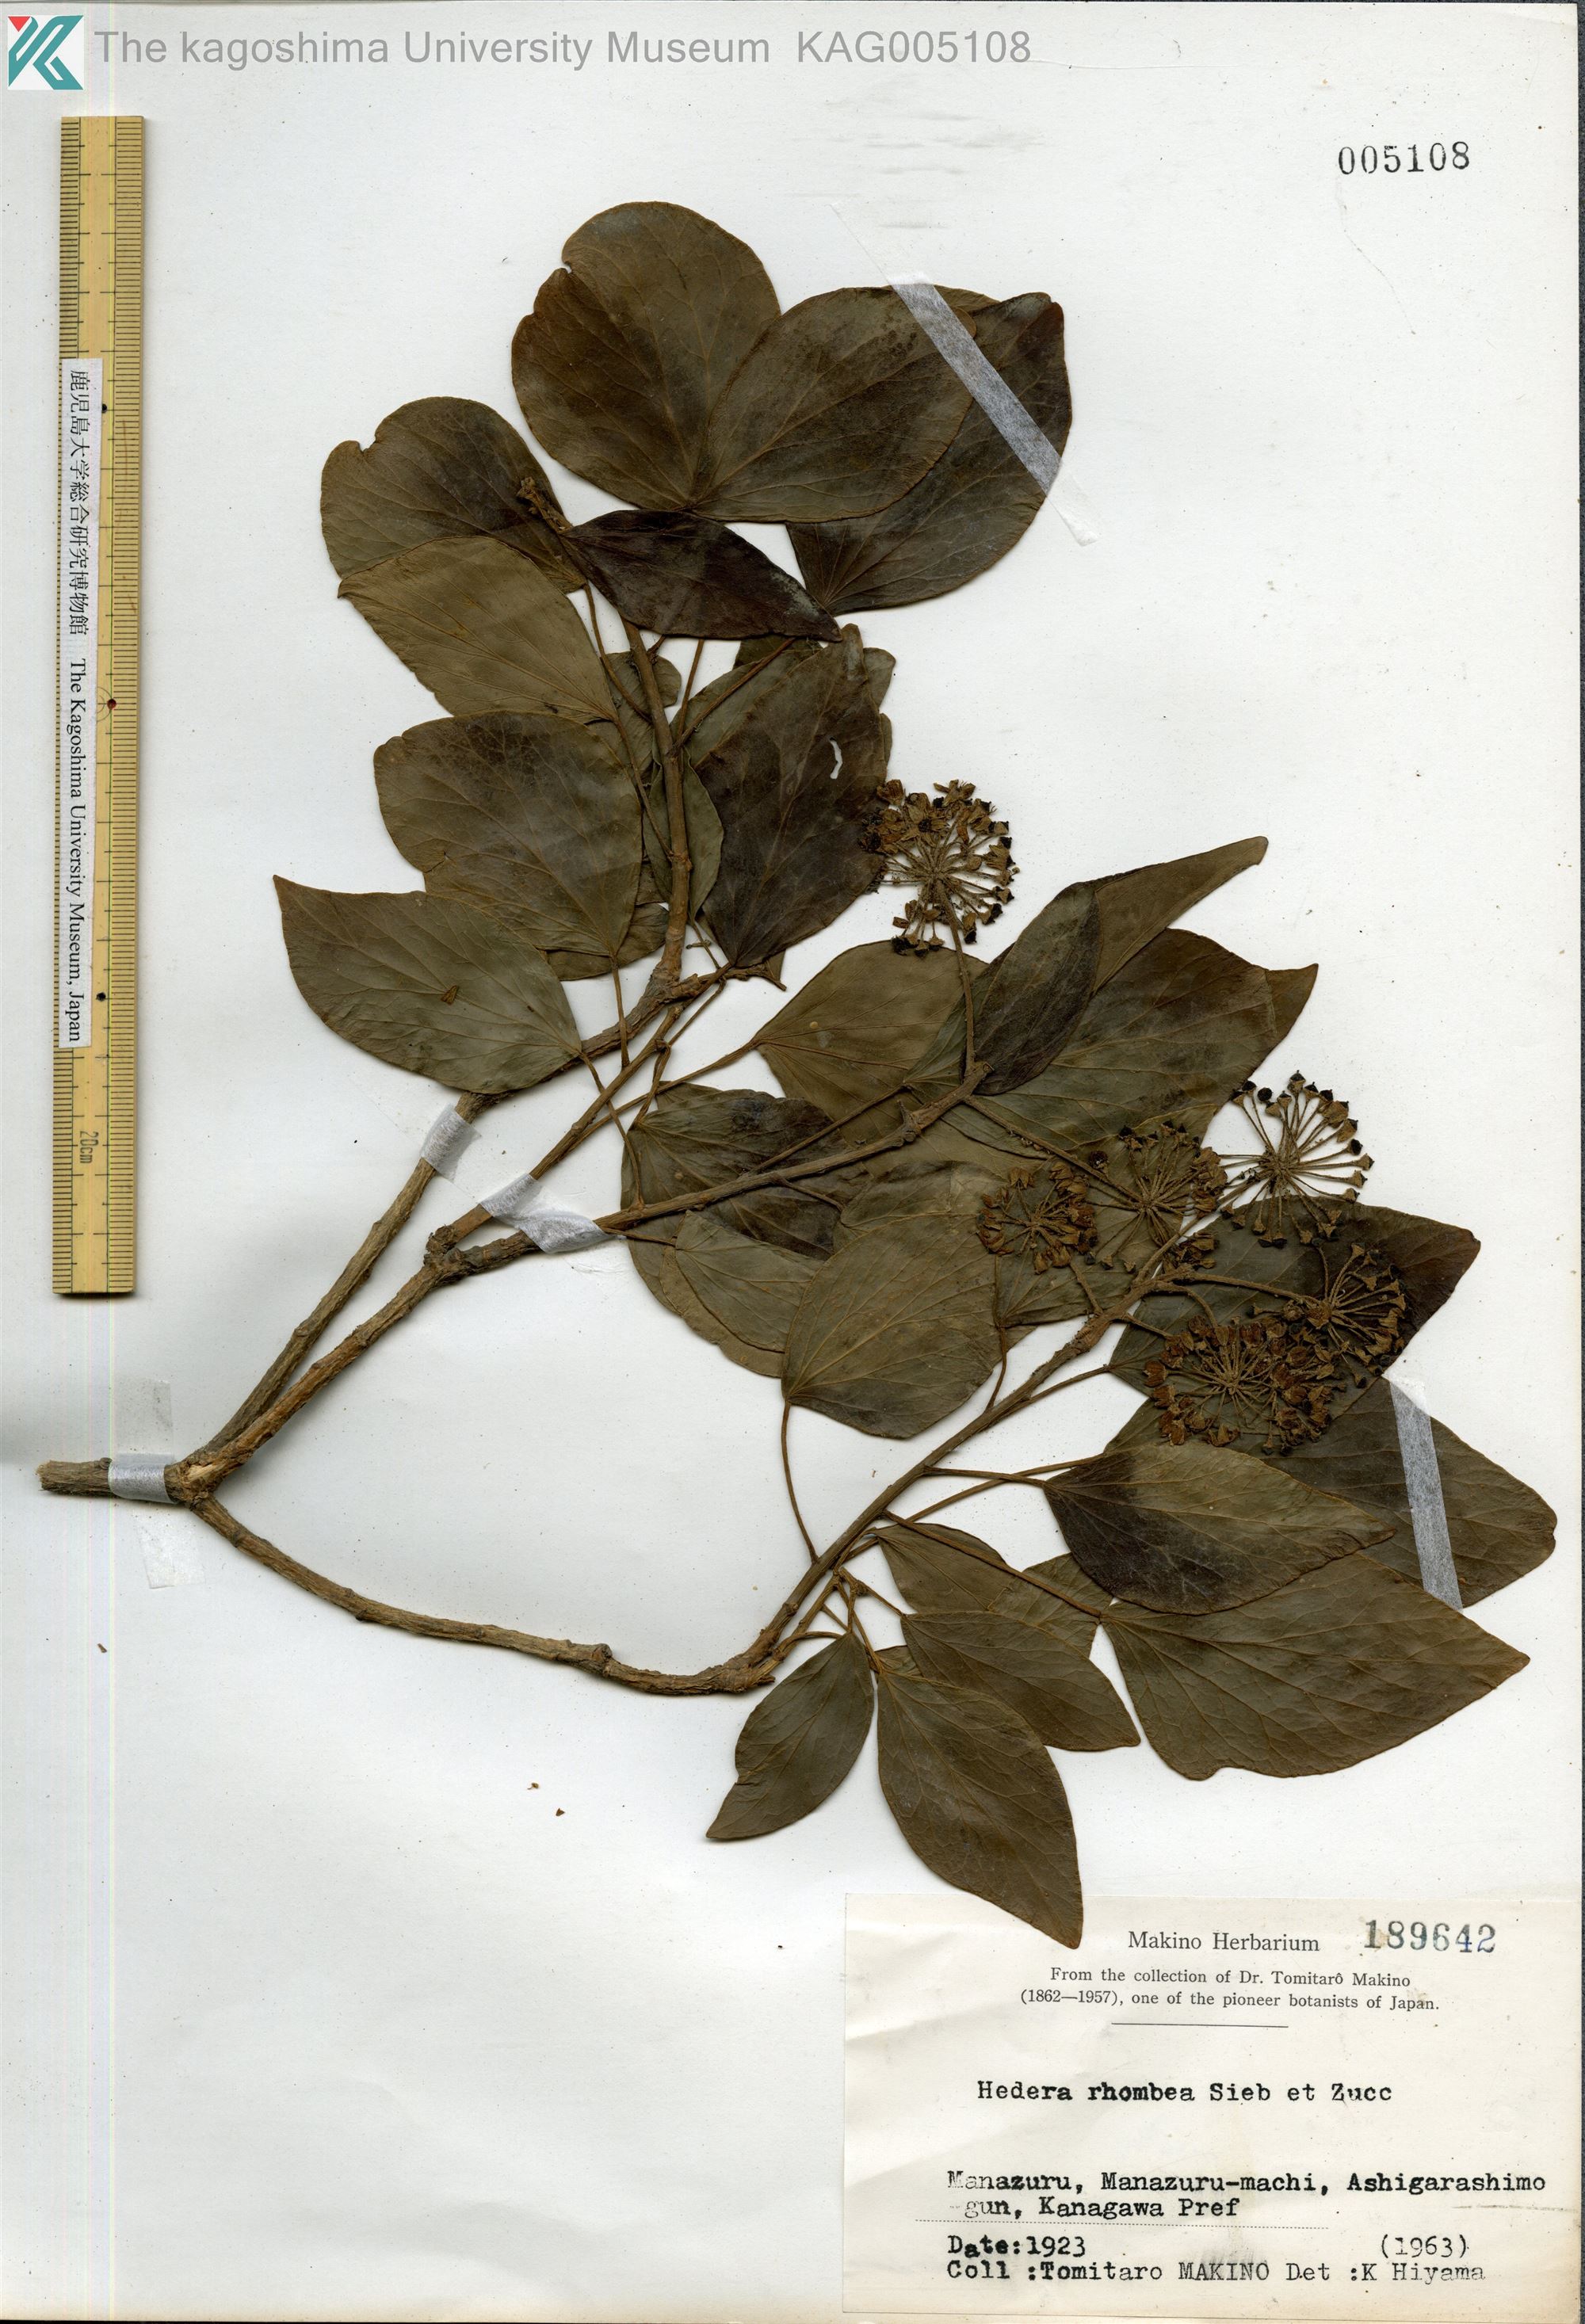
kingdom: Plantae
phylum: Tracheophyta
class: Magnoliopsida
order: Apiales
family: Araliaceae
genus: Hedera
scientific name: Hedera rhombea
